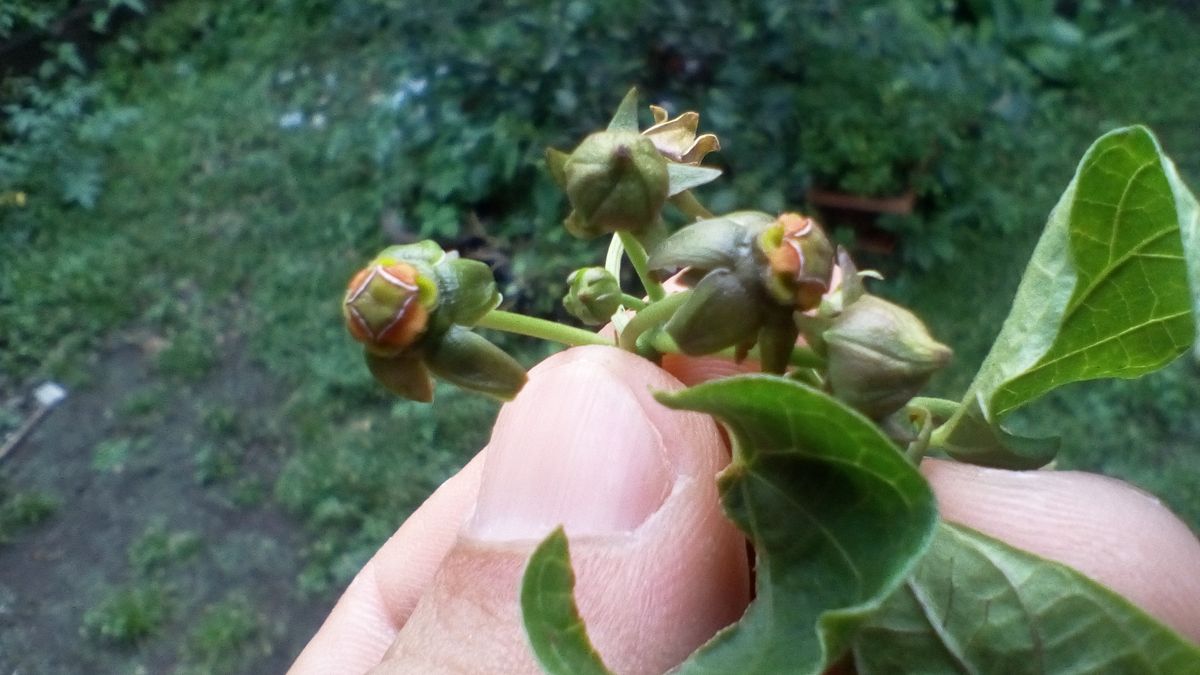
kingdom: Plantae
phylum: Tracheophyta
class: Magnoliopsida
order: Gentianales
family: Apocynaceae
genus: Gonolobus
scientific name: Gonolobus cuajayote
